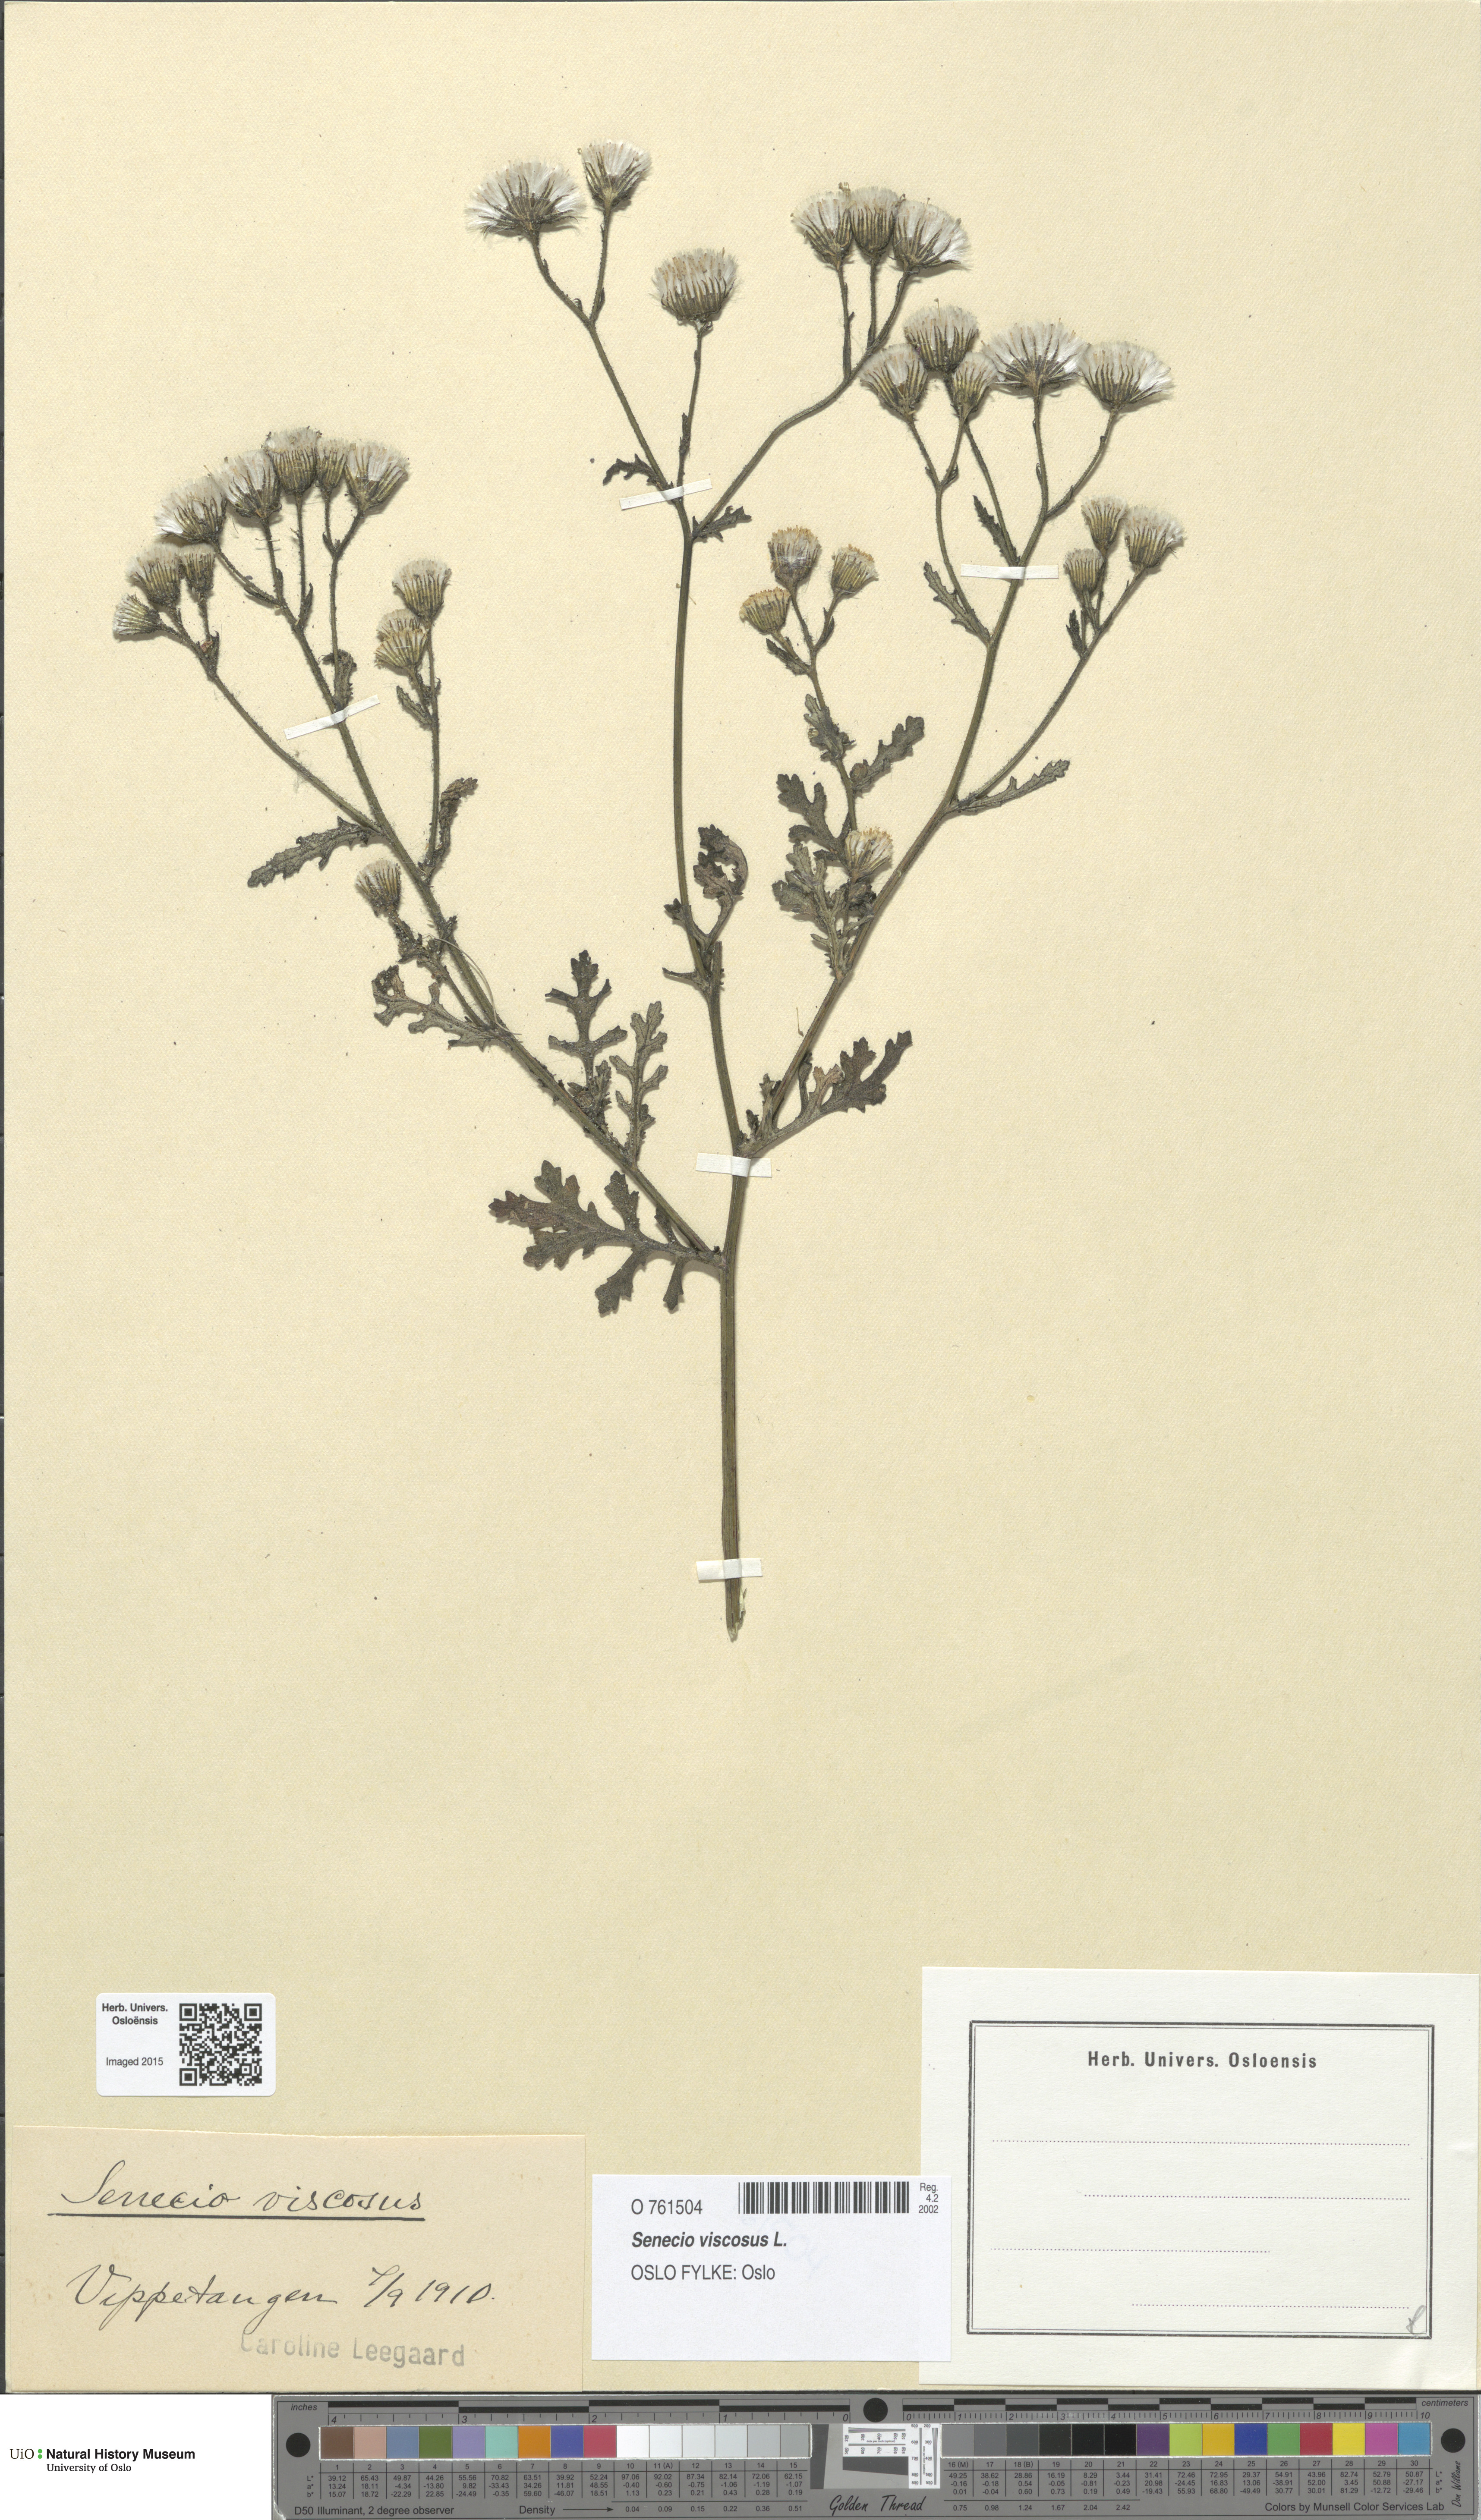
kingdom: Plantae
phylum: Tracheophyta
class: Magnoliopsida
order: Asterales
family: Asteraceae
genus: Senecio
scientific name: Senecio viscosus
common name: Sticky groundsel
